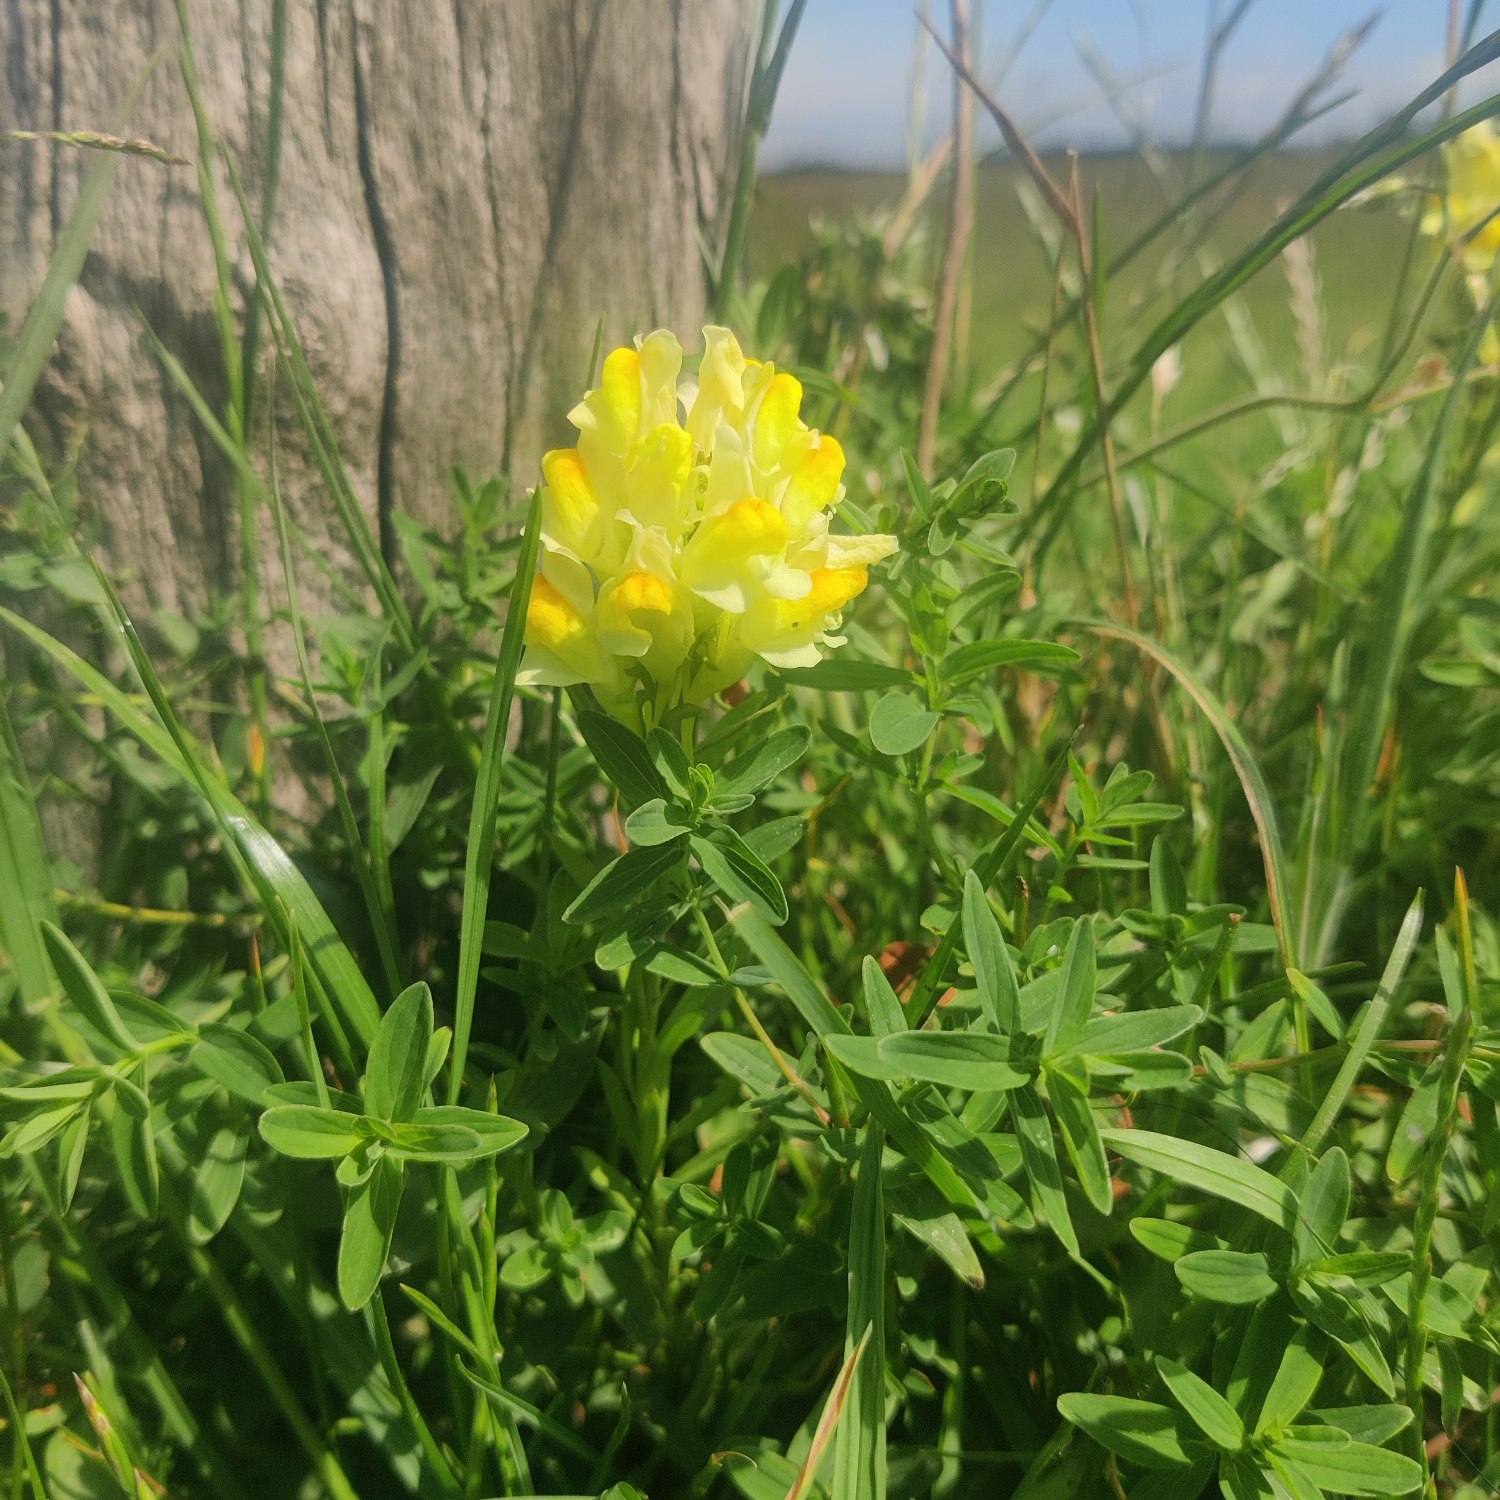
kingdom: Plantae
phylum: Tracheophyta
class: Magnoliopsida
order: Lamiales
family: Plantaginaceae
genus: Linaria
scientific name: Linaria vulgaris
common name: Almindelig torskemund
